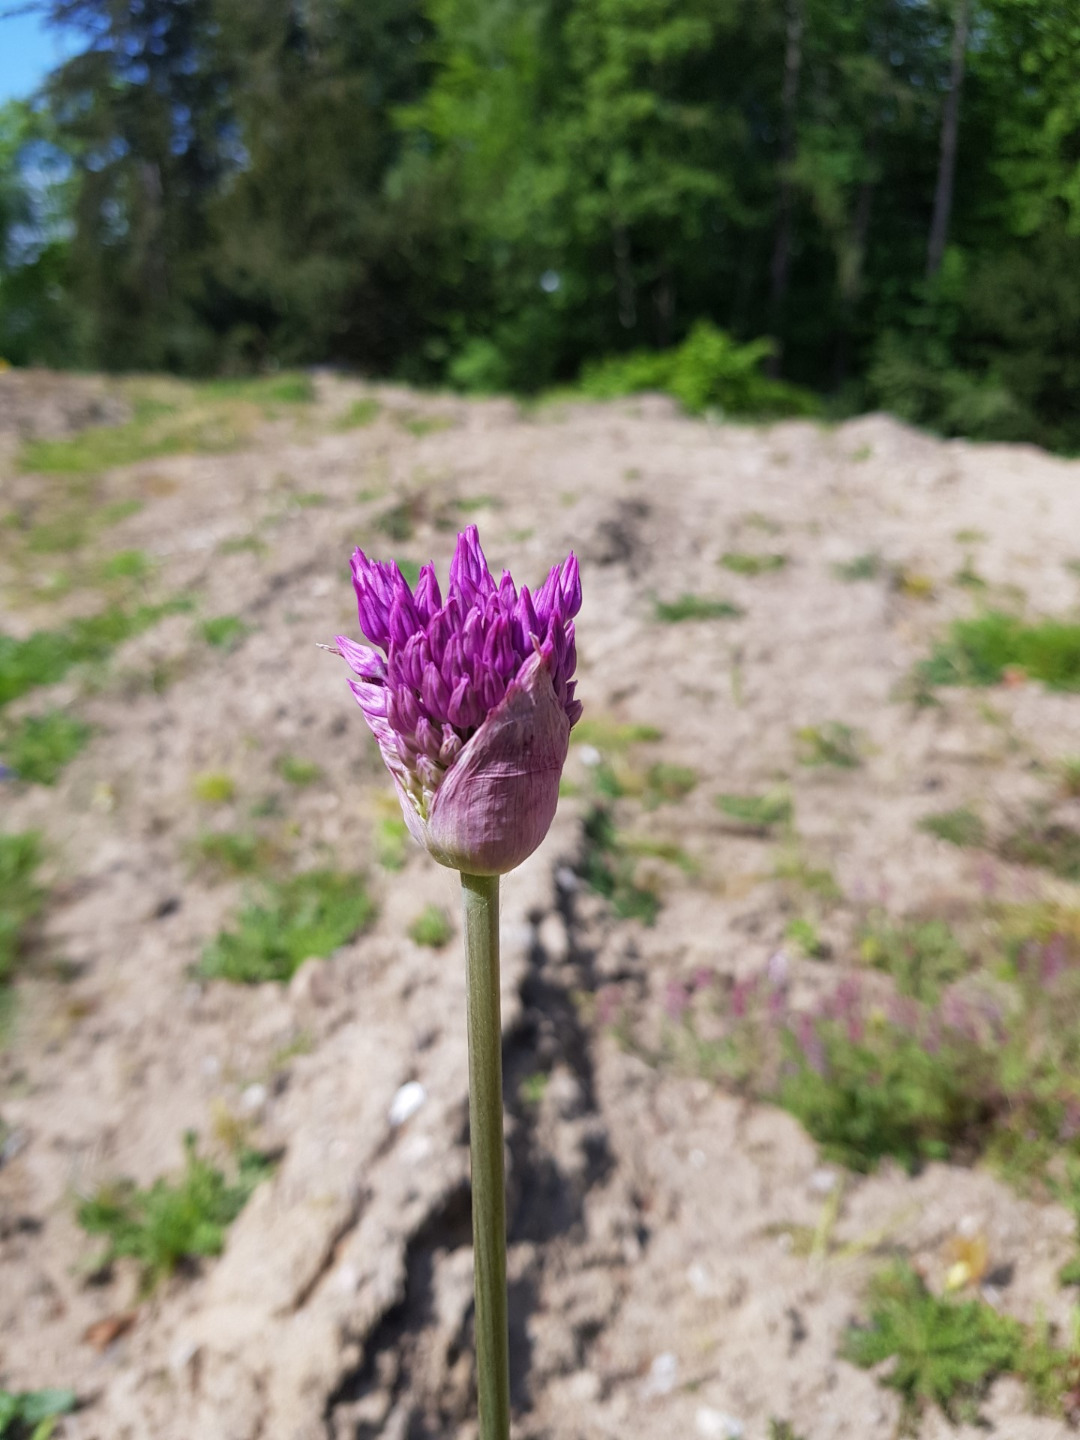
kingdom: Plantae
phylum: Tracheophyta
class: Liliopsida
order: Asparagales
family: Amaryllidaceae
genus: Allium
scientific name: Allium hollandicum
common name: Kirgisisk pryd-løg
